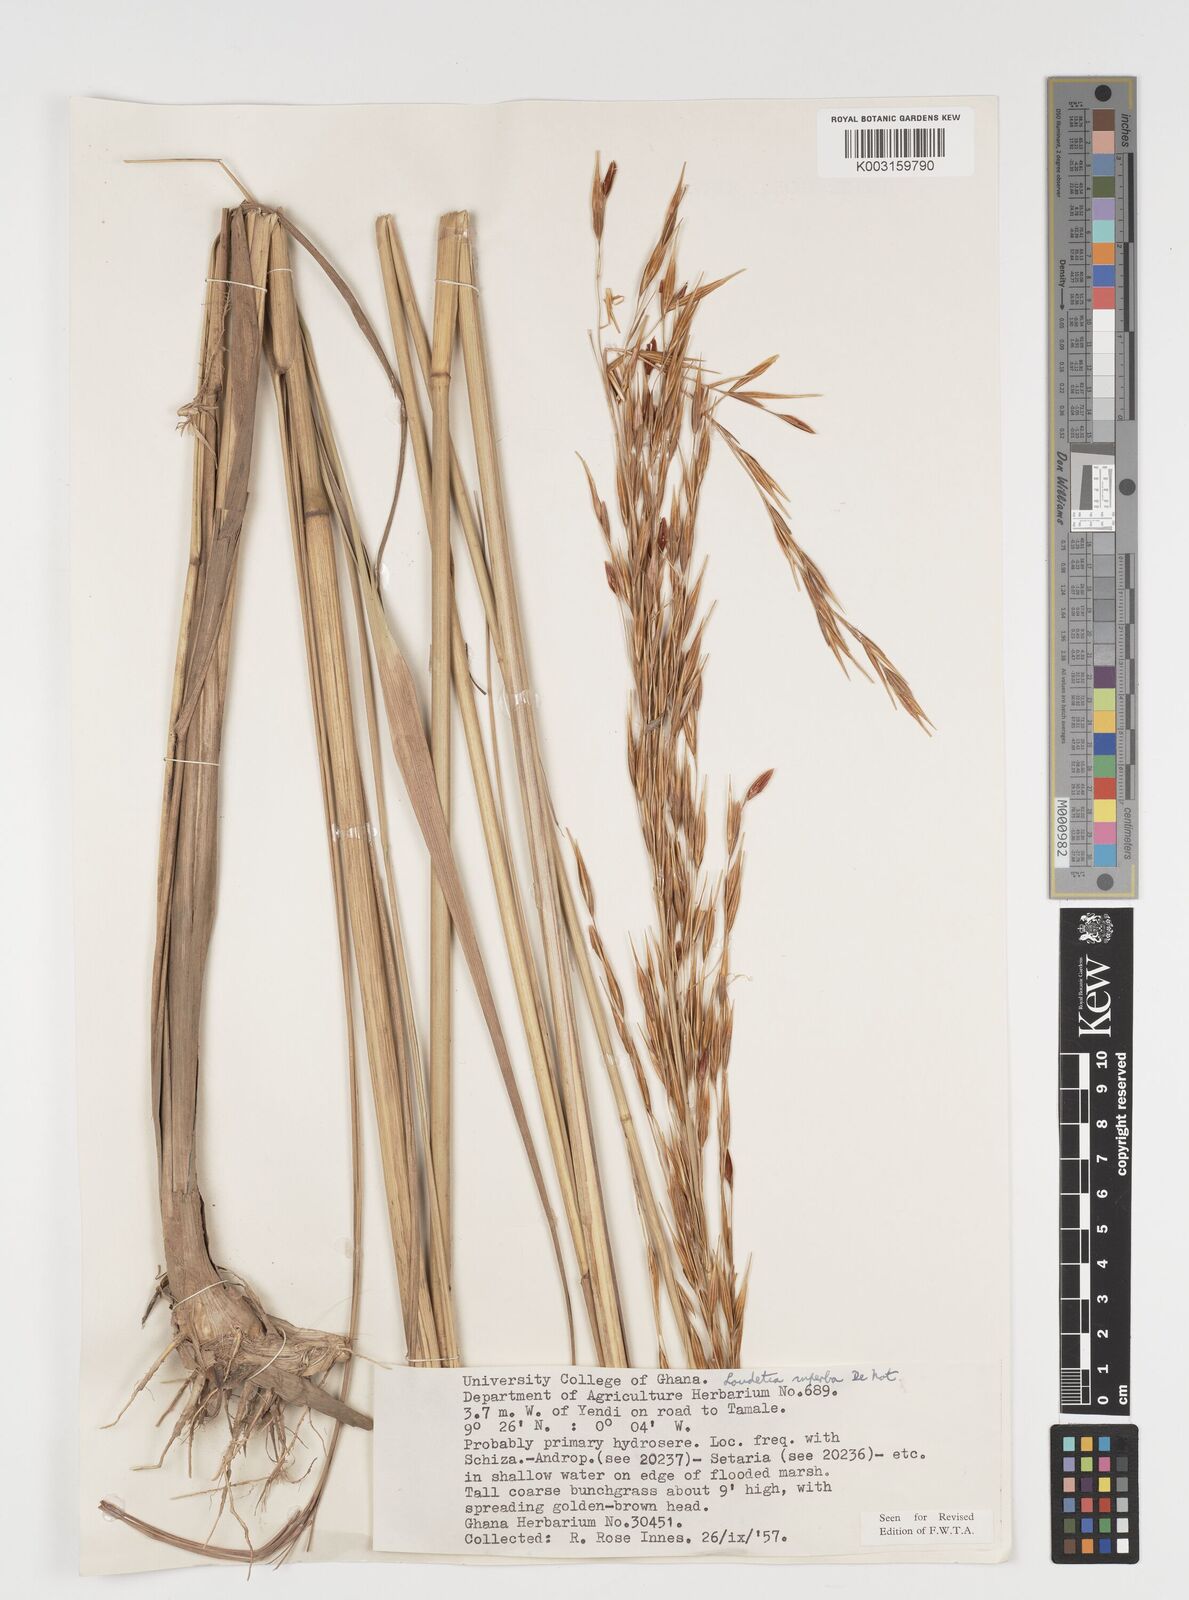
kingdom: Plantae
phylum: Tracheophyta
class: Liliopsida
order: Poales
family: Poaceae
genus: Tristachya
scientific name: Tristachya superba
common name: Giant trident grass
